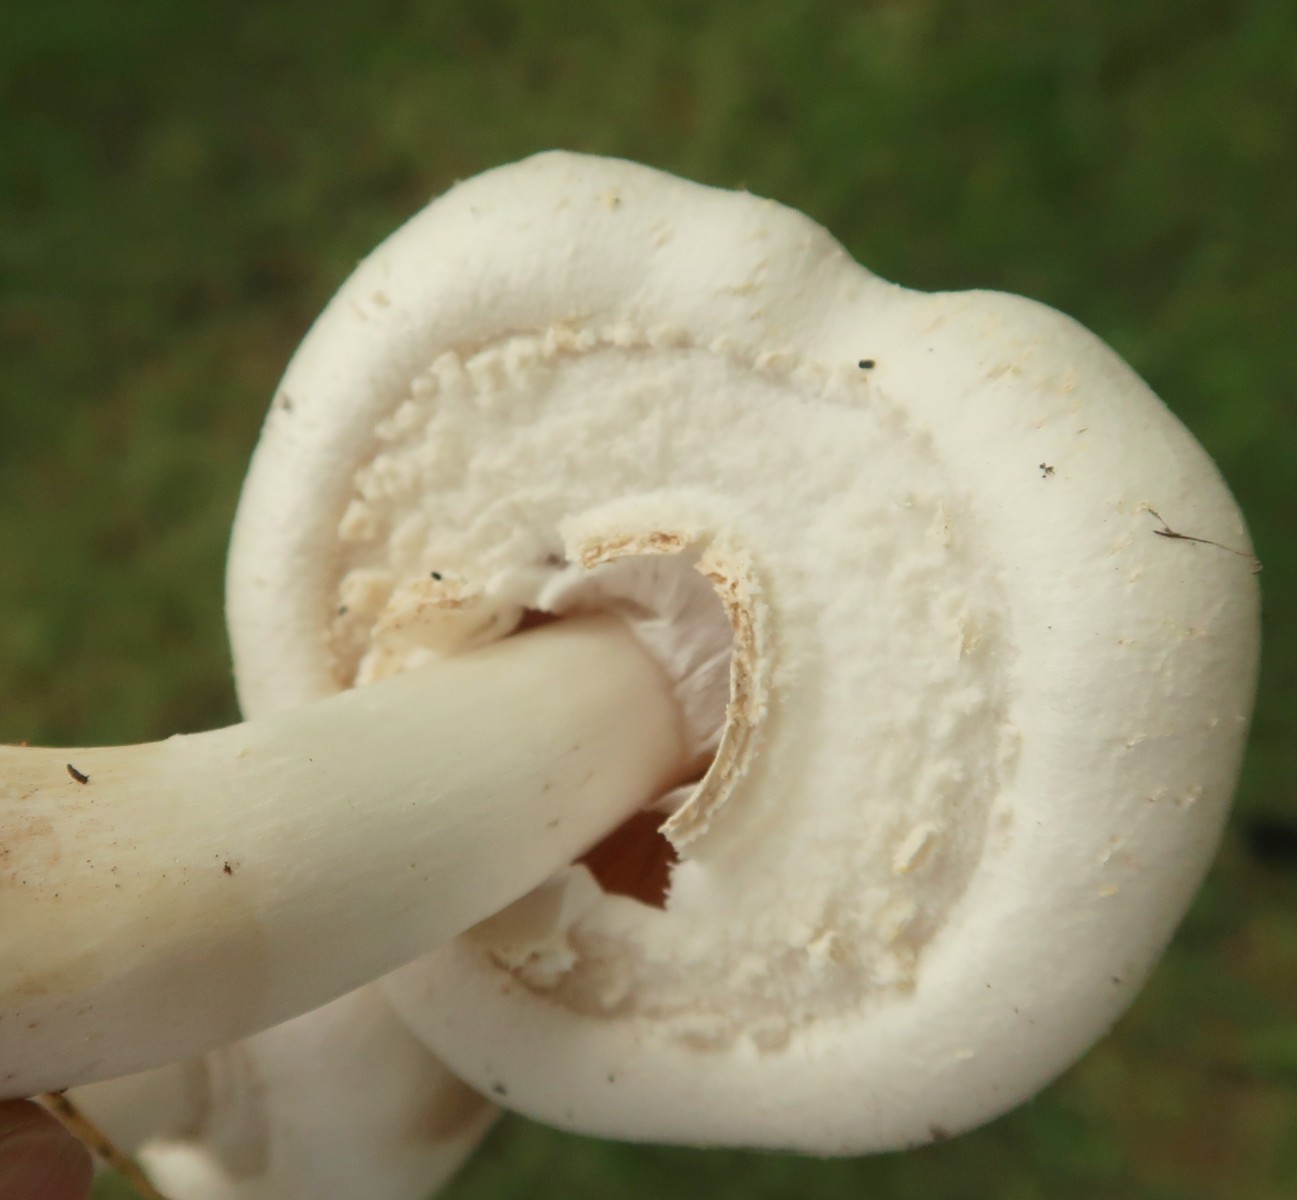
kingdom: Fungi
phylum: Basidiomycota
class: Agaricomycetes
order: Agaricales
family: Agaricaceae
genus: Agaricus
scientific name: Agaricus arvensis
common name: ager-champignon
